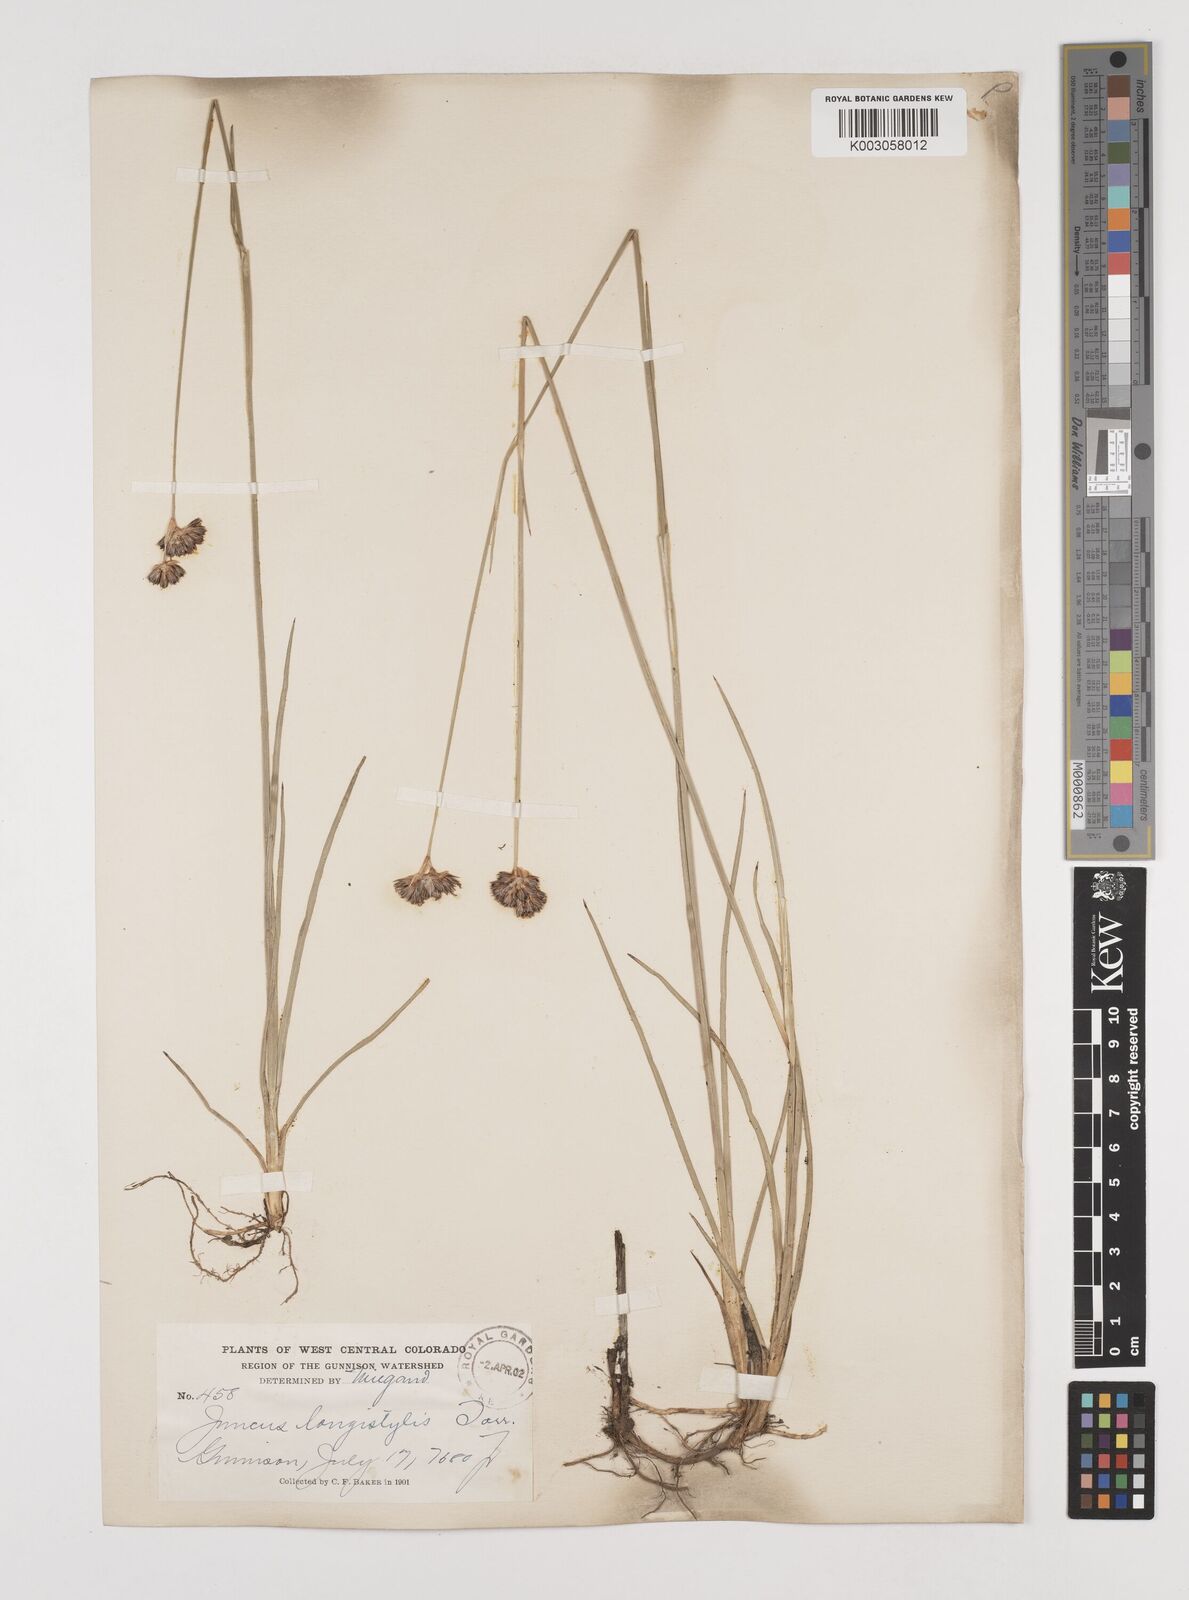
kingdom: Plantae
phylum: Tracheophyta
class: Liliopsida
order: Poales
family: Juncaceae
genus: Juncus
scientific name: Juncus longistylis
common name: Long-style rush
